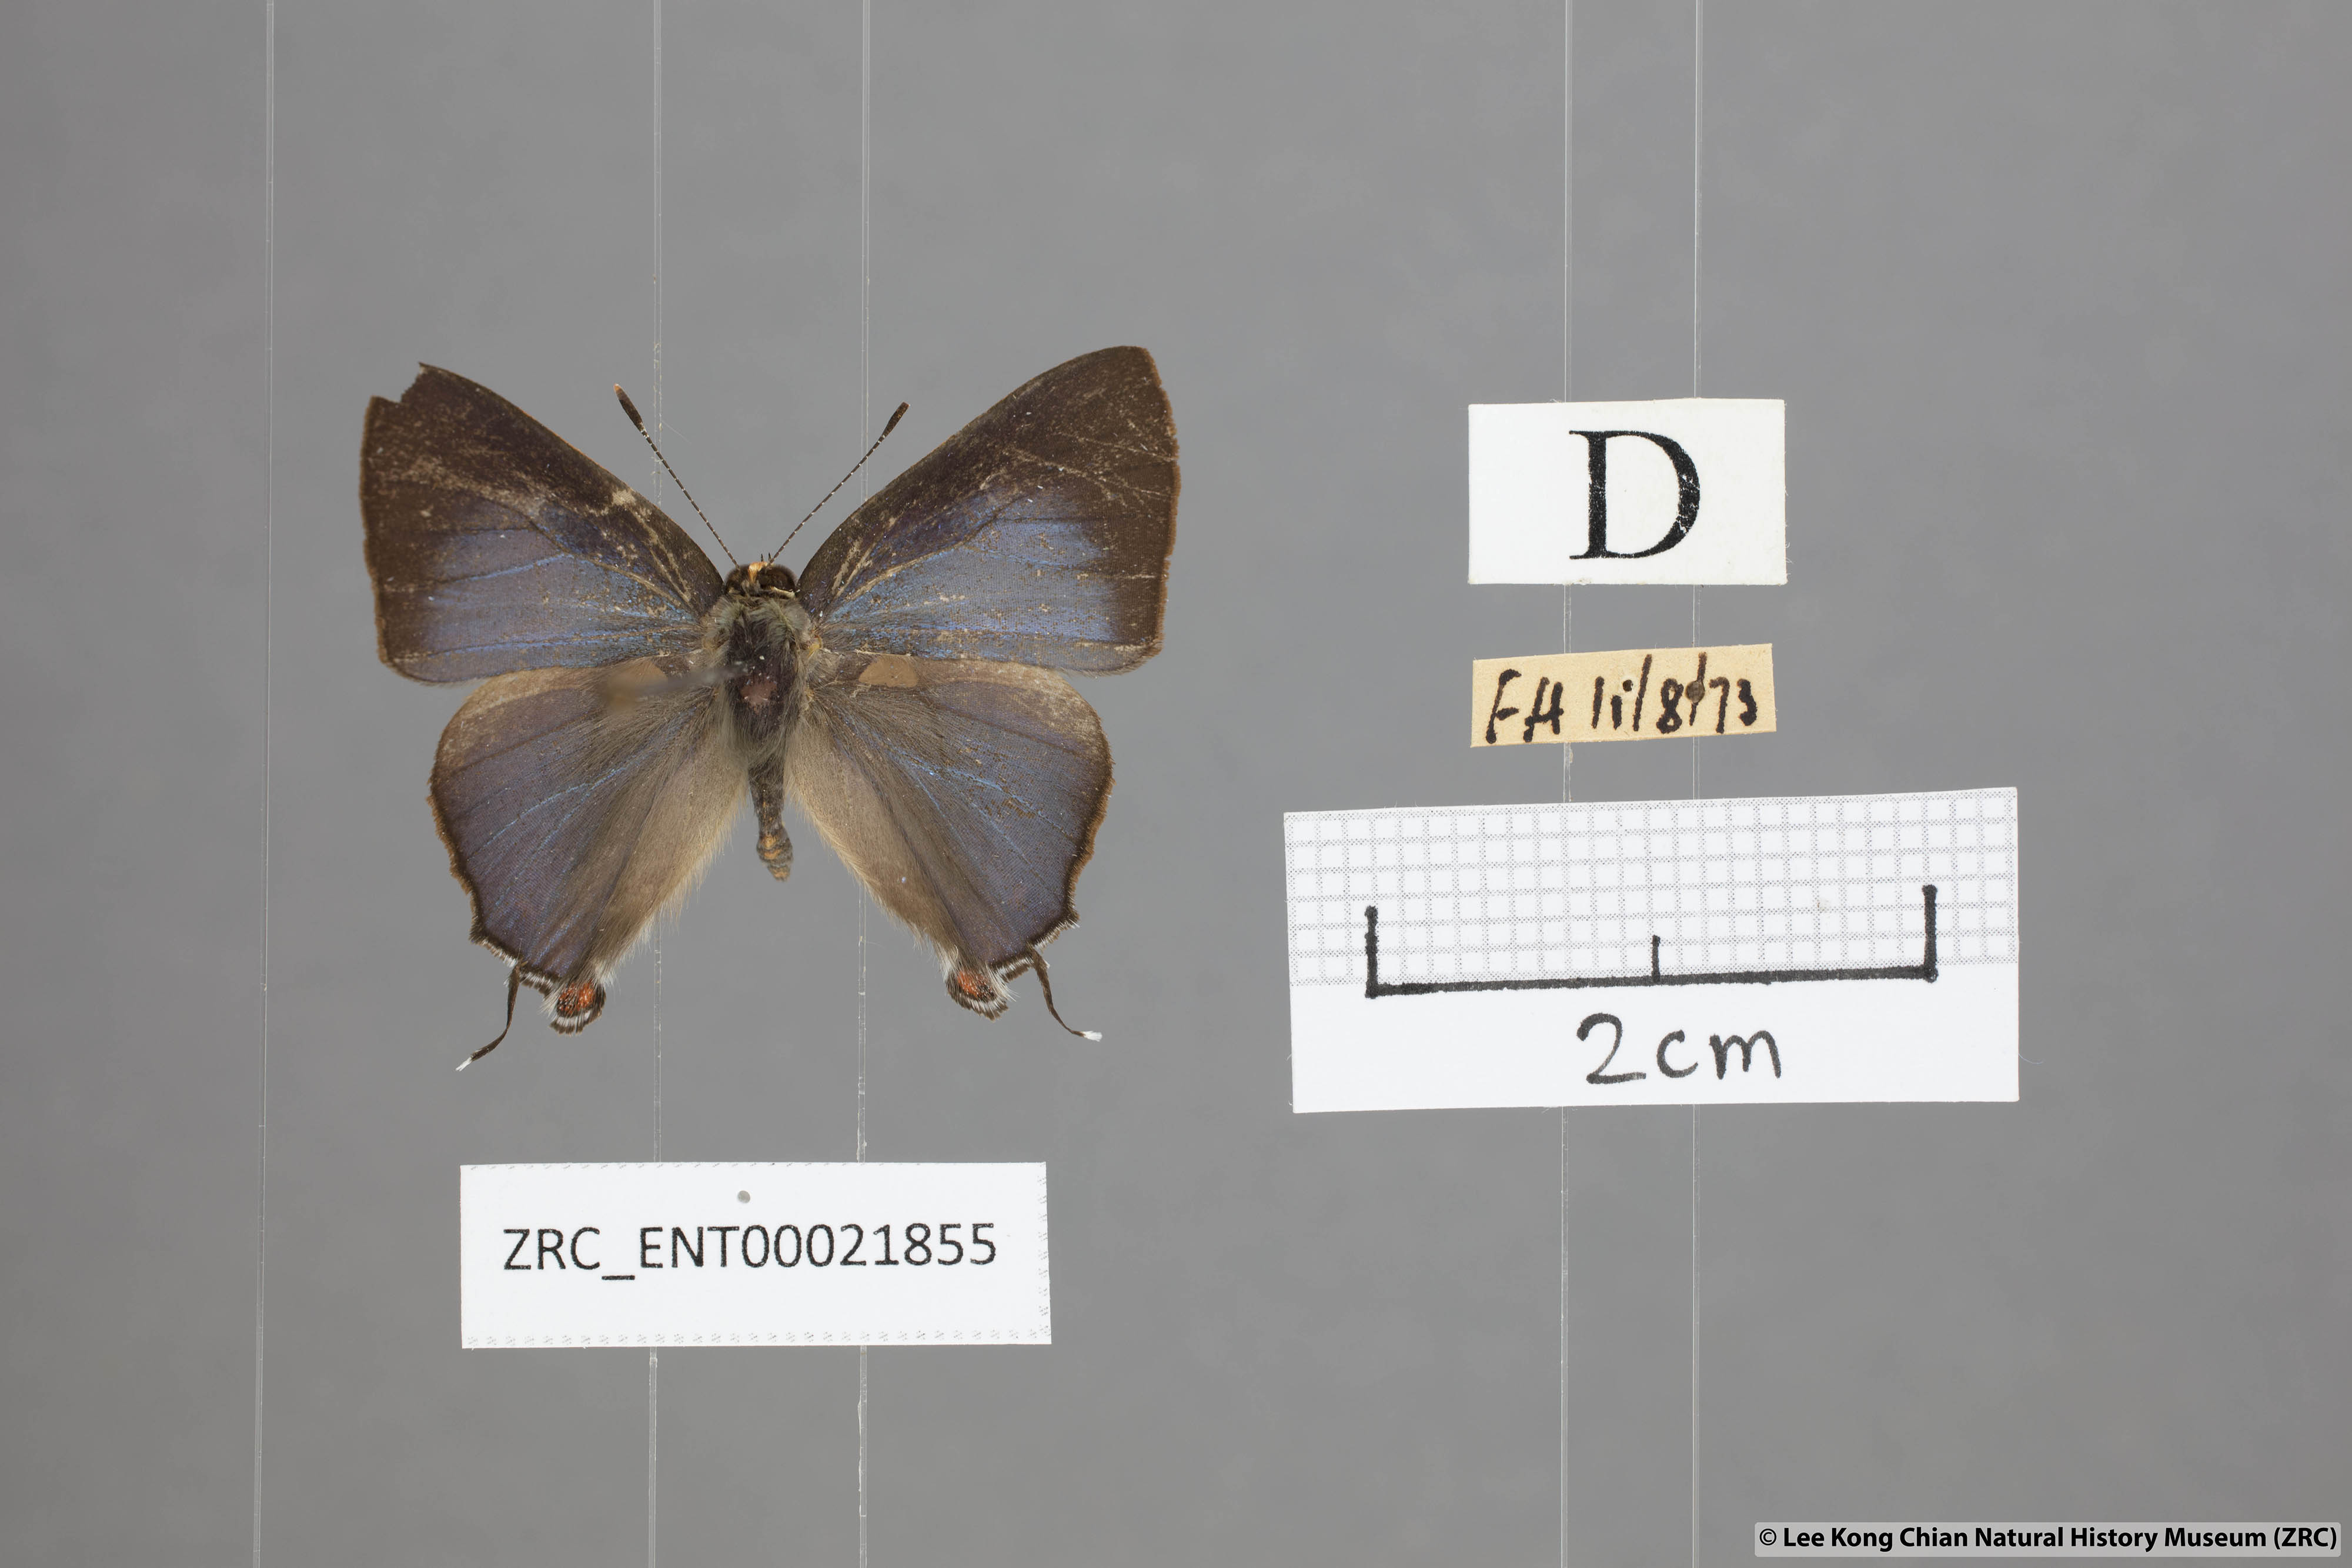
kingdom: Animalia
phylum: Arthropoda
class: Insecta
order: Lepidoptera
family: Lycaenidae
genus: Rapala
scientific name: Rapala nissa
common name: Common flash
